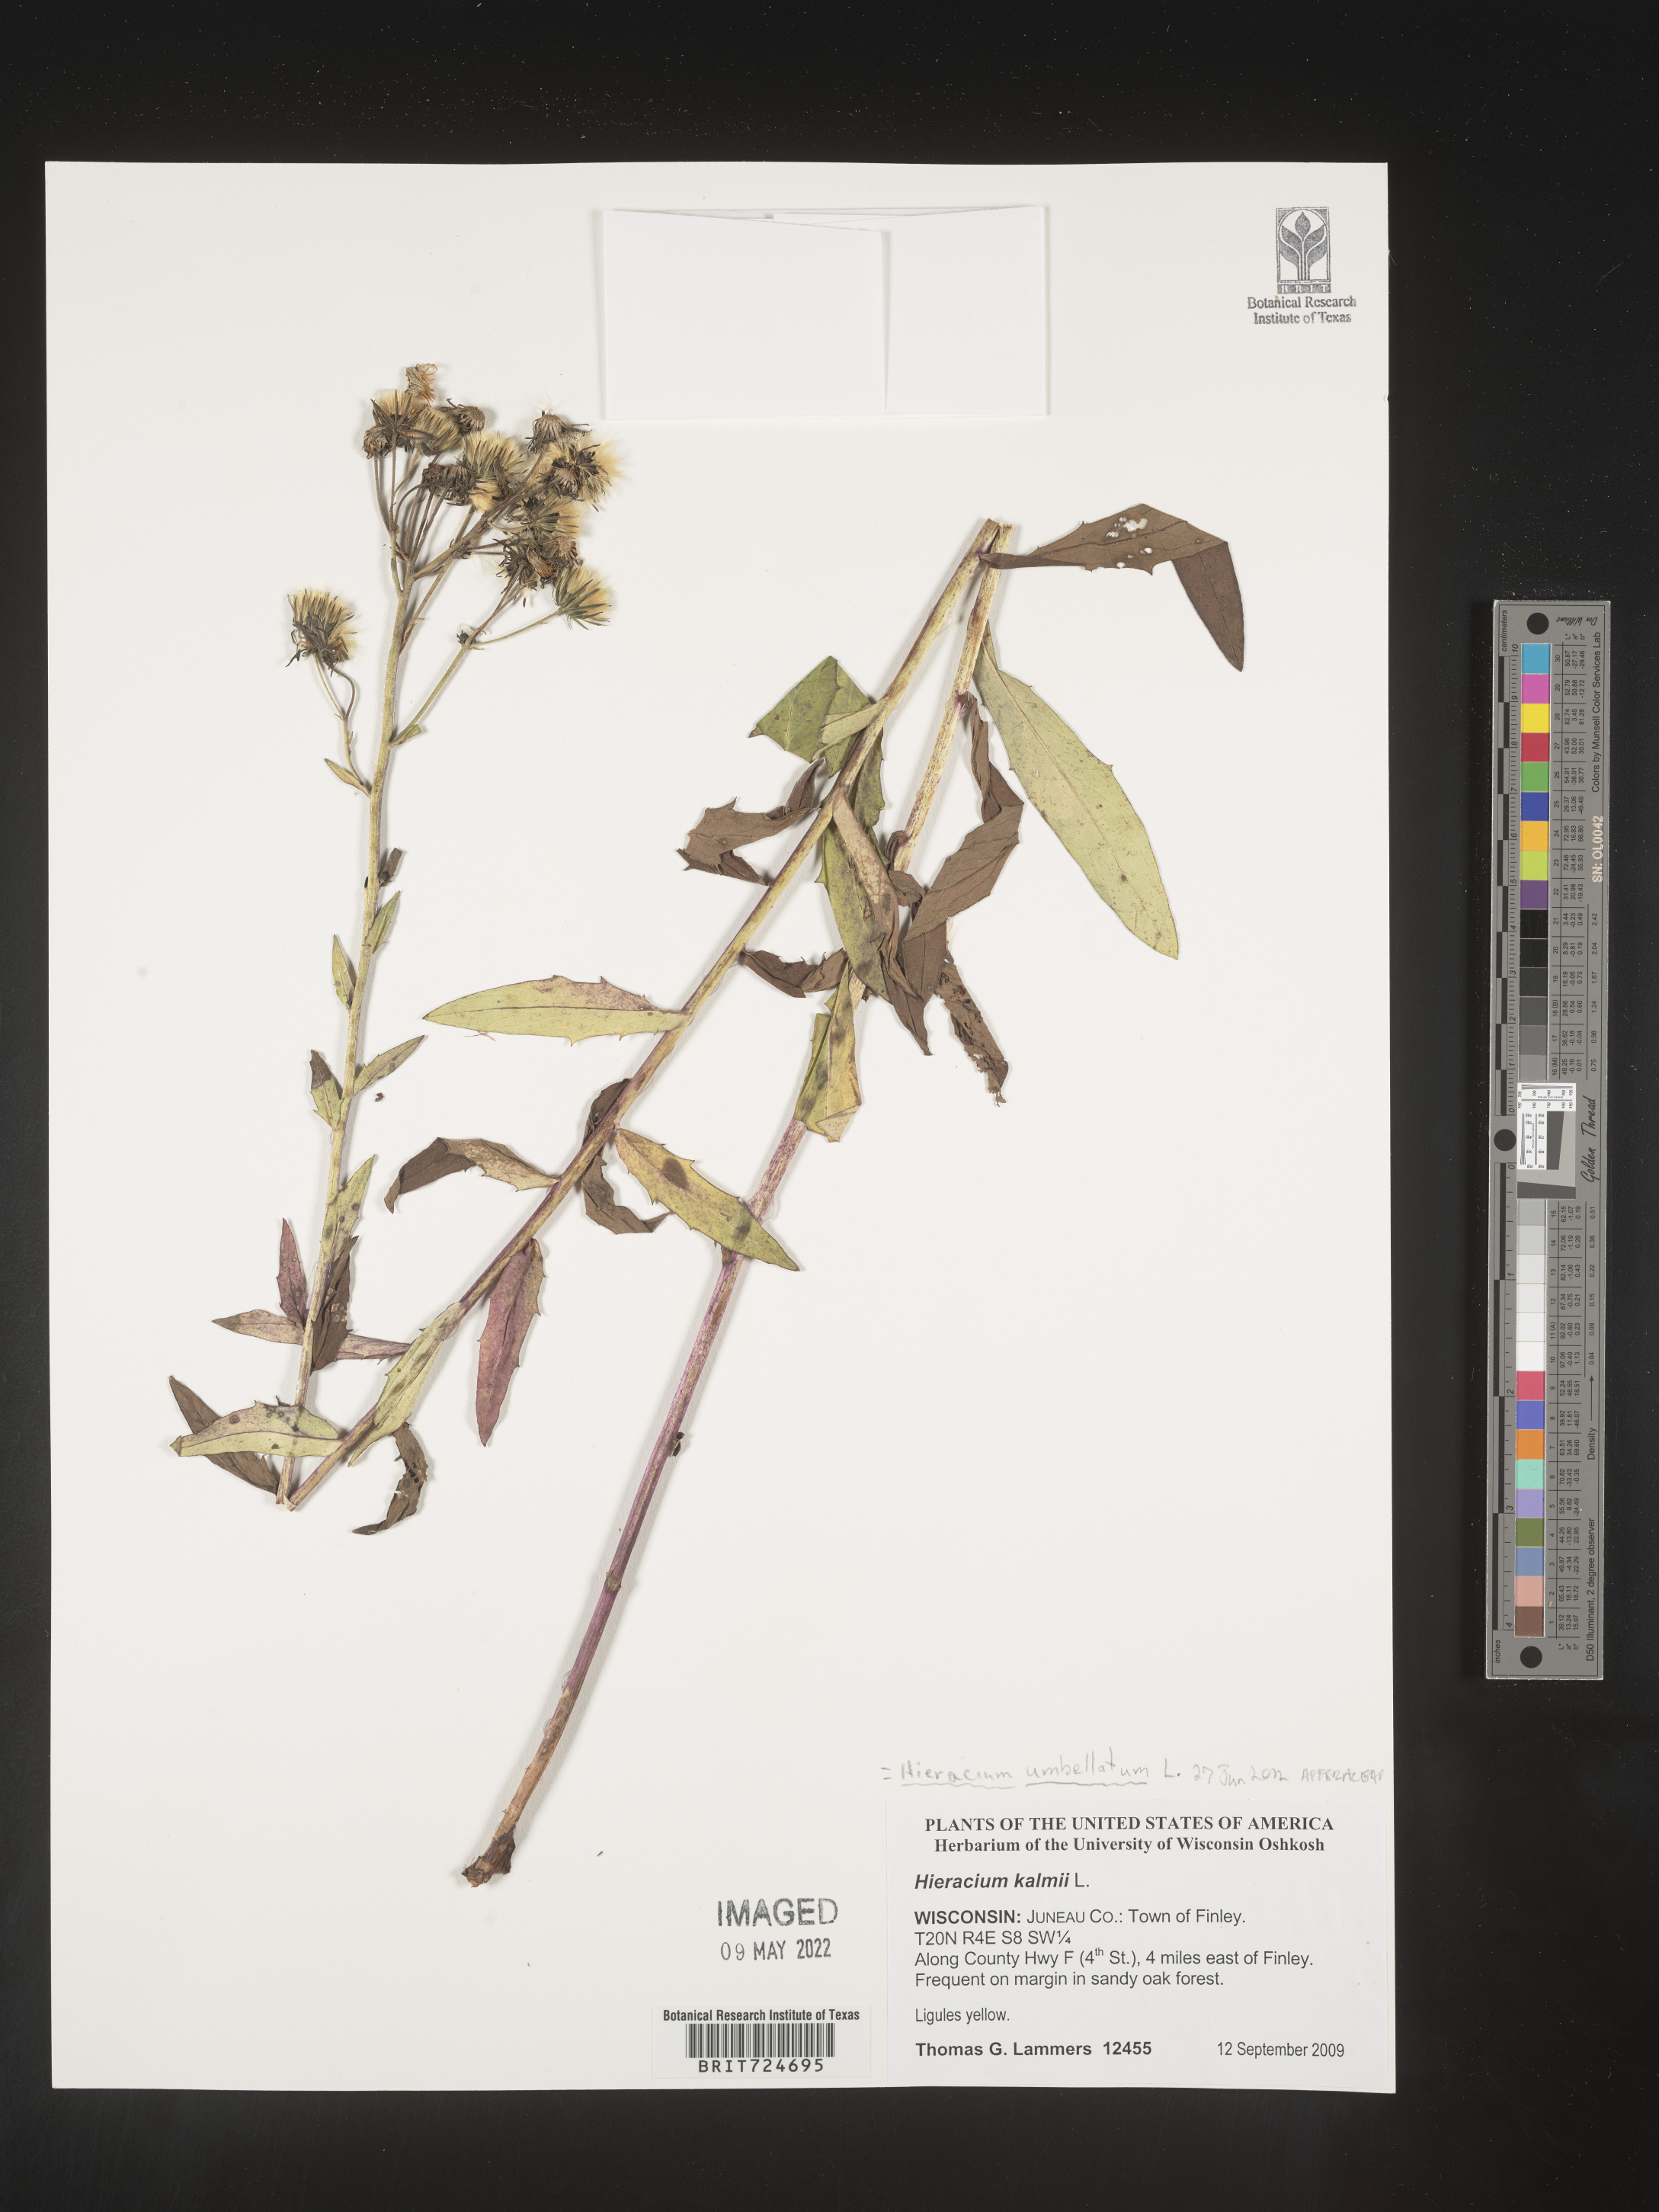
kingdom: Plantae
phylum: Tracheophyta
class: Magnoliopsida
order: Asterales
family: Asteraceae
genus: Hieracium
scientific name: Hieracium
